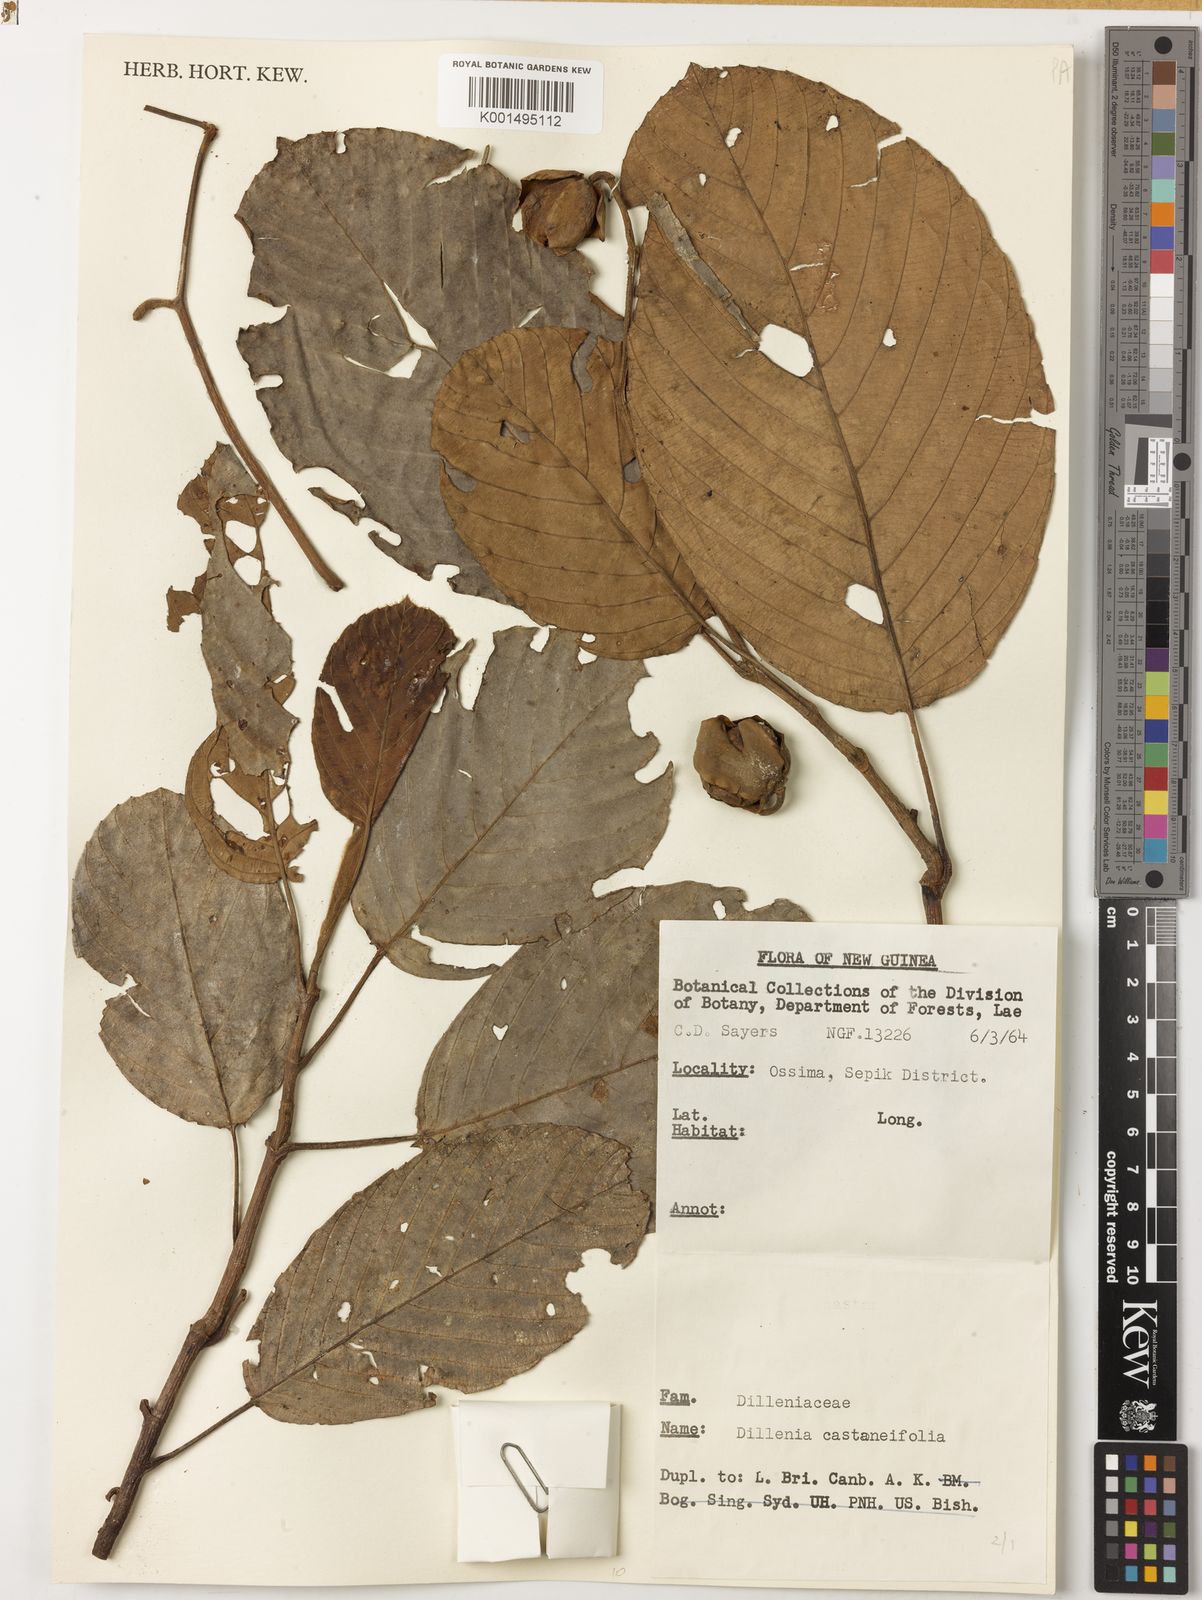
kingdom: Plantae
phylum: Tracheophyta
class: Magnoliopsida
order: Dilleniales
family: Dilleniaceae
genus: Dillenia
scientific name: Dillenia castaneifolia
